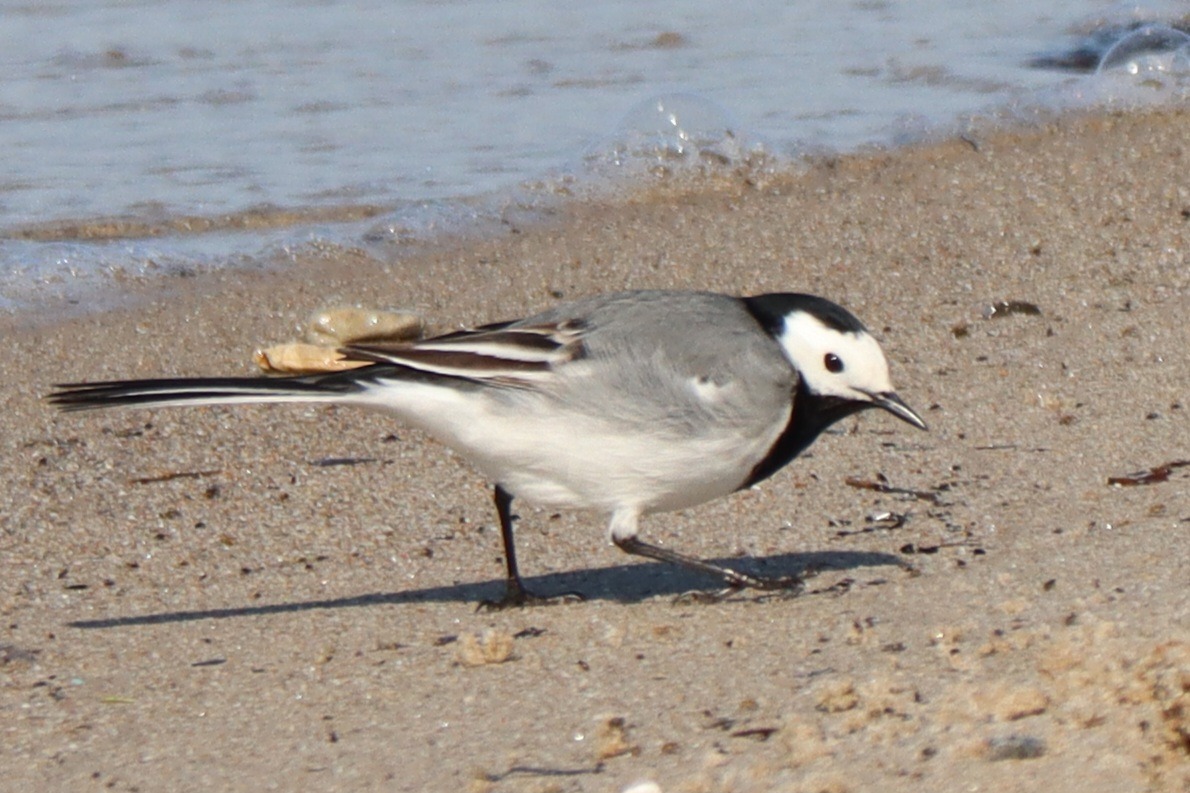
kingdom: Animalia
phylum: Chordata
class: Aves
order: Passeriformes
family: Motacillidae
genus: Motacilla
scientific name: Motacilla alba
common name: Hvid vipstjert
